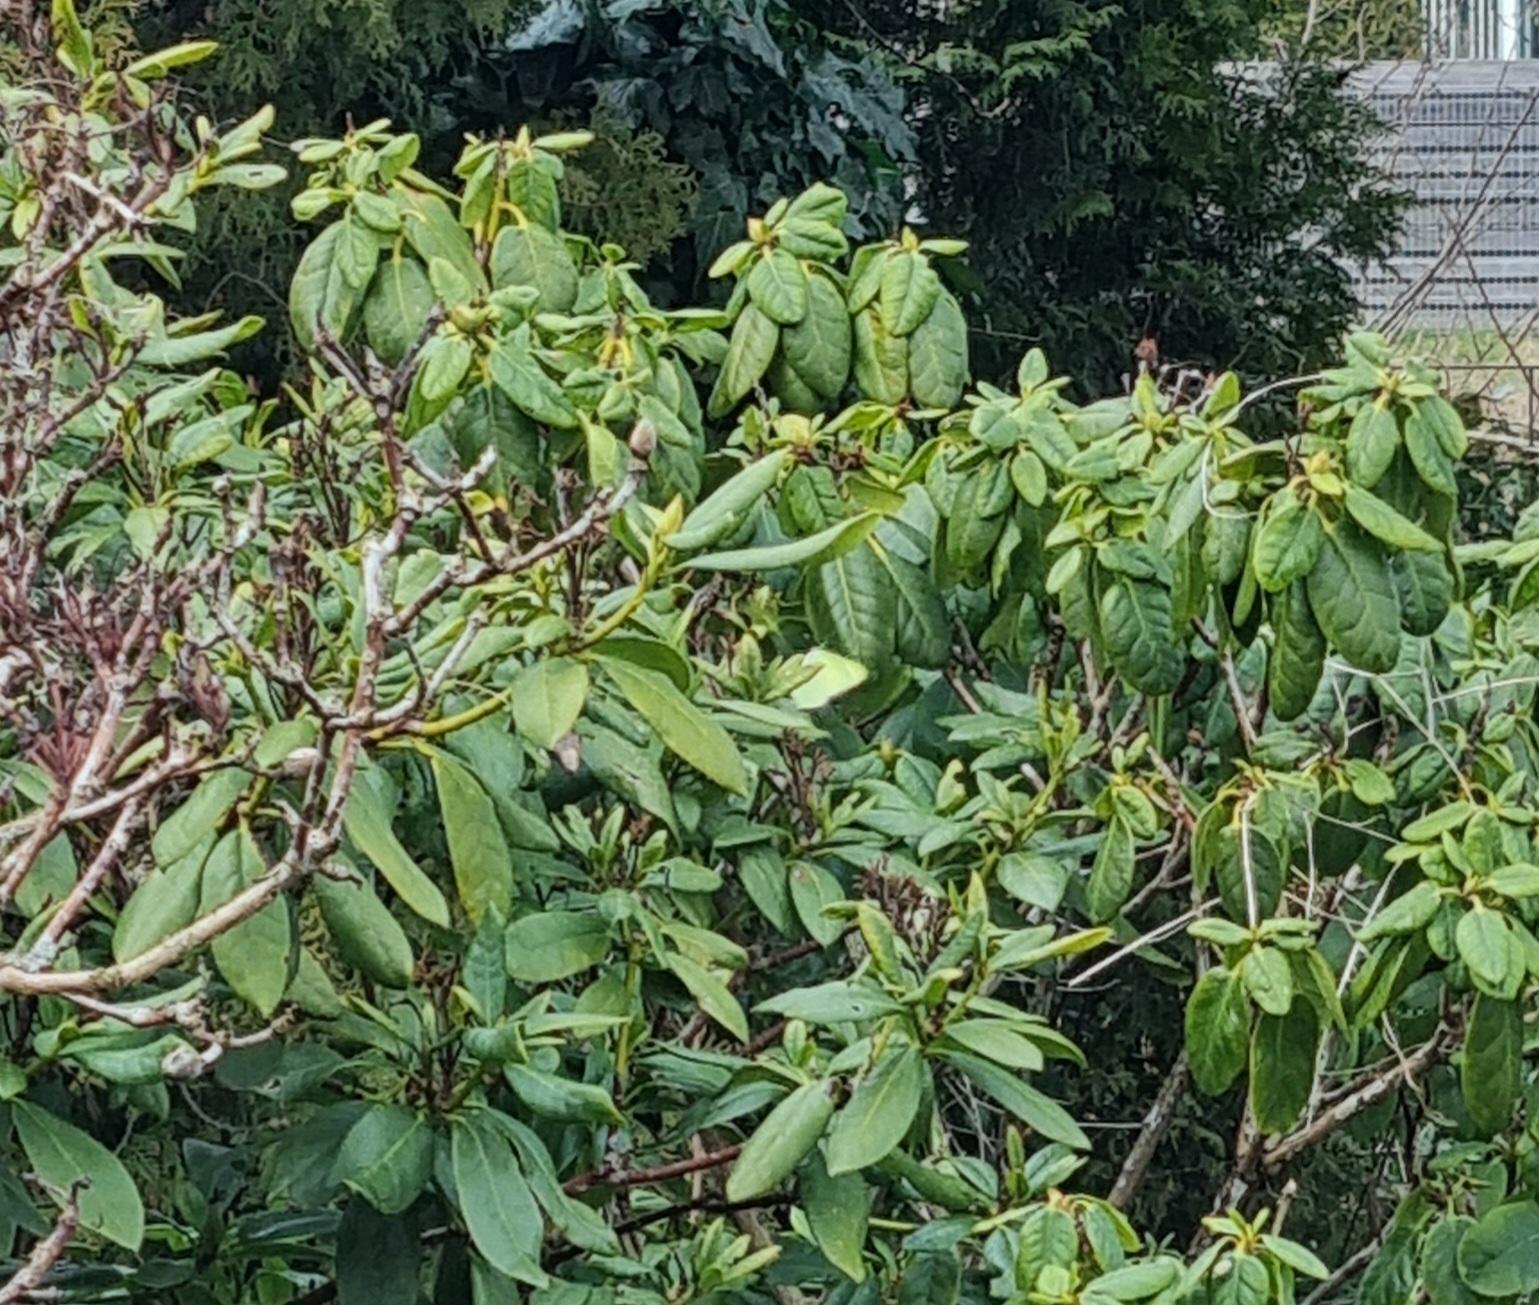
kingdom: Animalia
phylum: Arthropoda
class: Insecta
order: Lepidoptera
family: Pieridae
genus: Gonepteryx
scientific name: Gonepteryx rhamni
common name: Citronsommerfugl
